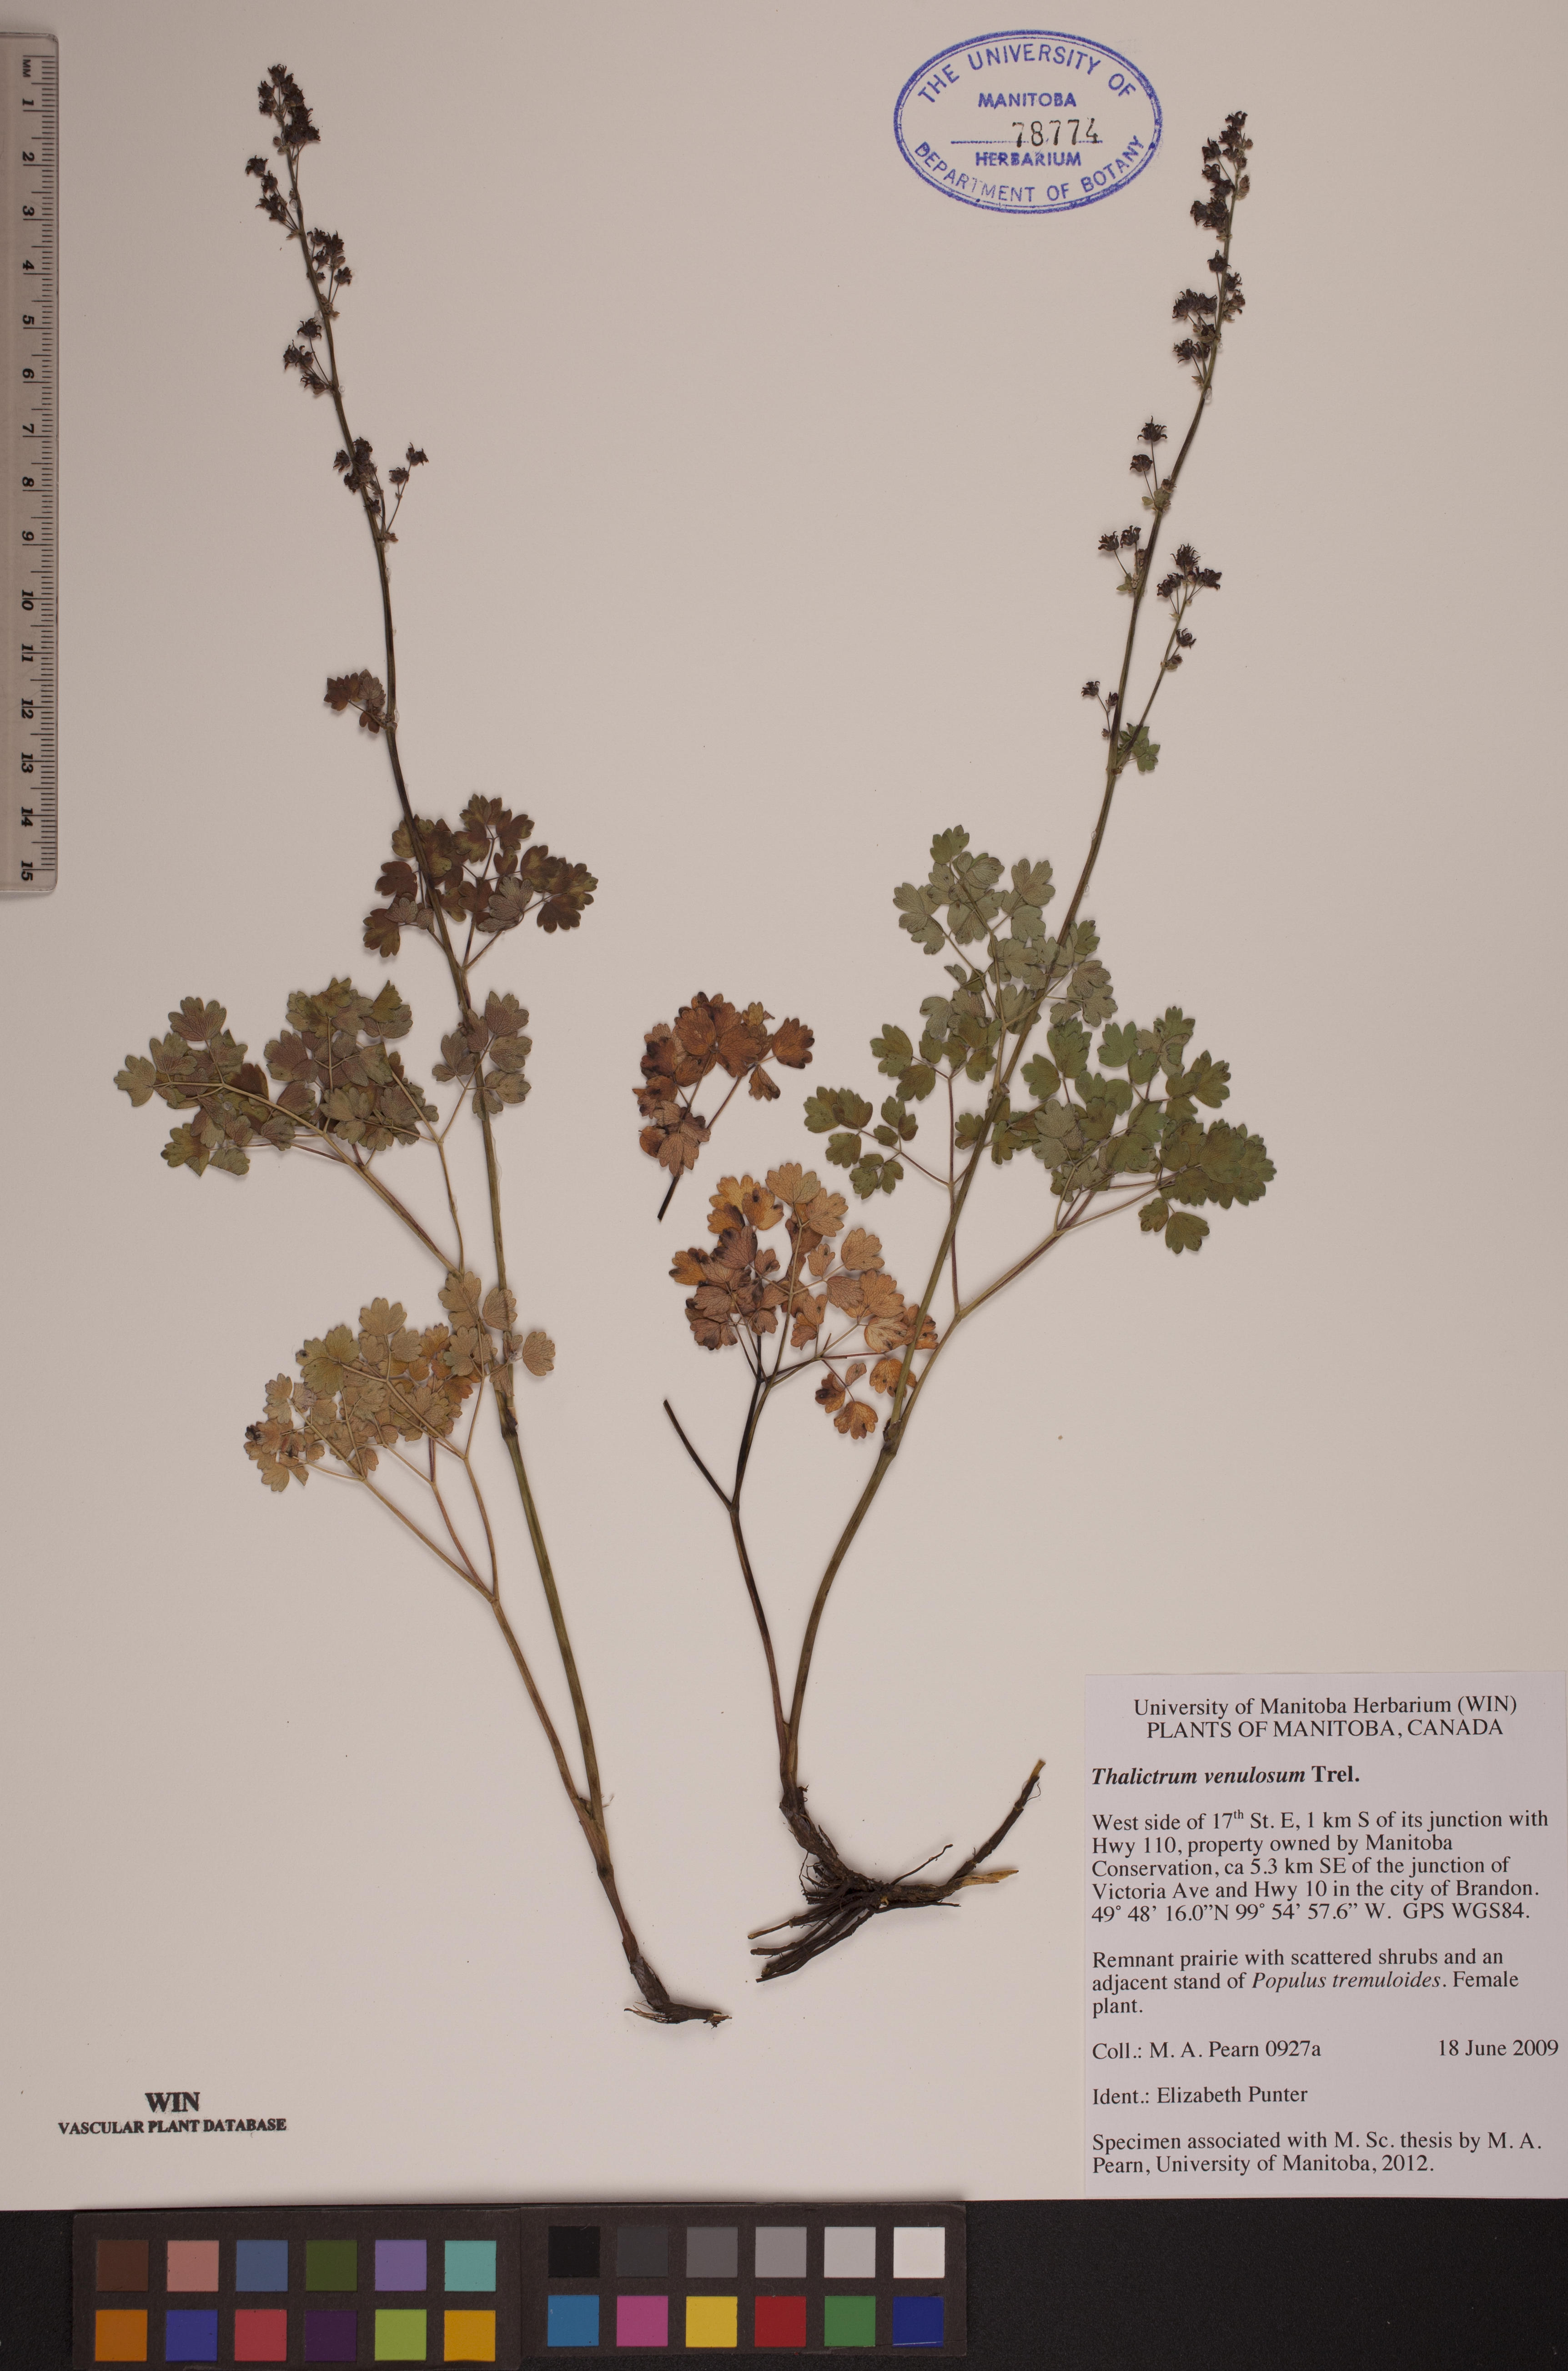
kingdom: Plantae
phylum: Tracheophyta
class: Magnoliopsida
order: Ranunculales
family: Ranunculaceae
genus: Thalictrum
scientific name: Thalictrum venulosum
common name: Early meadow-rue
